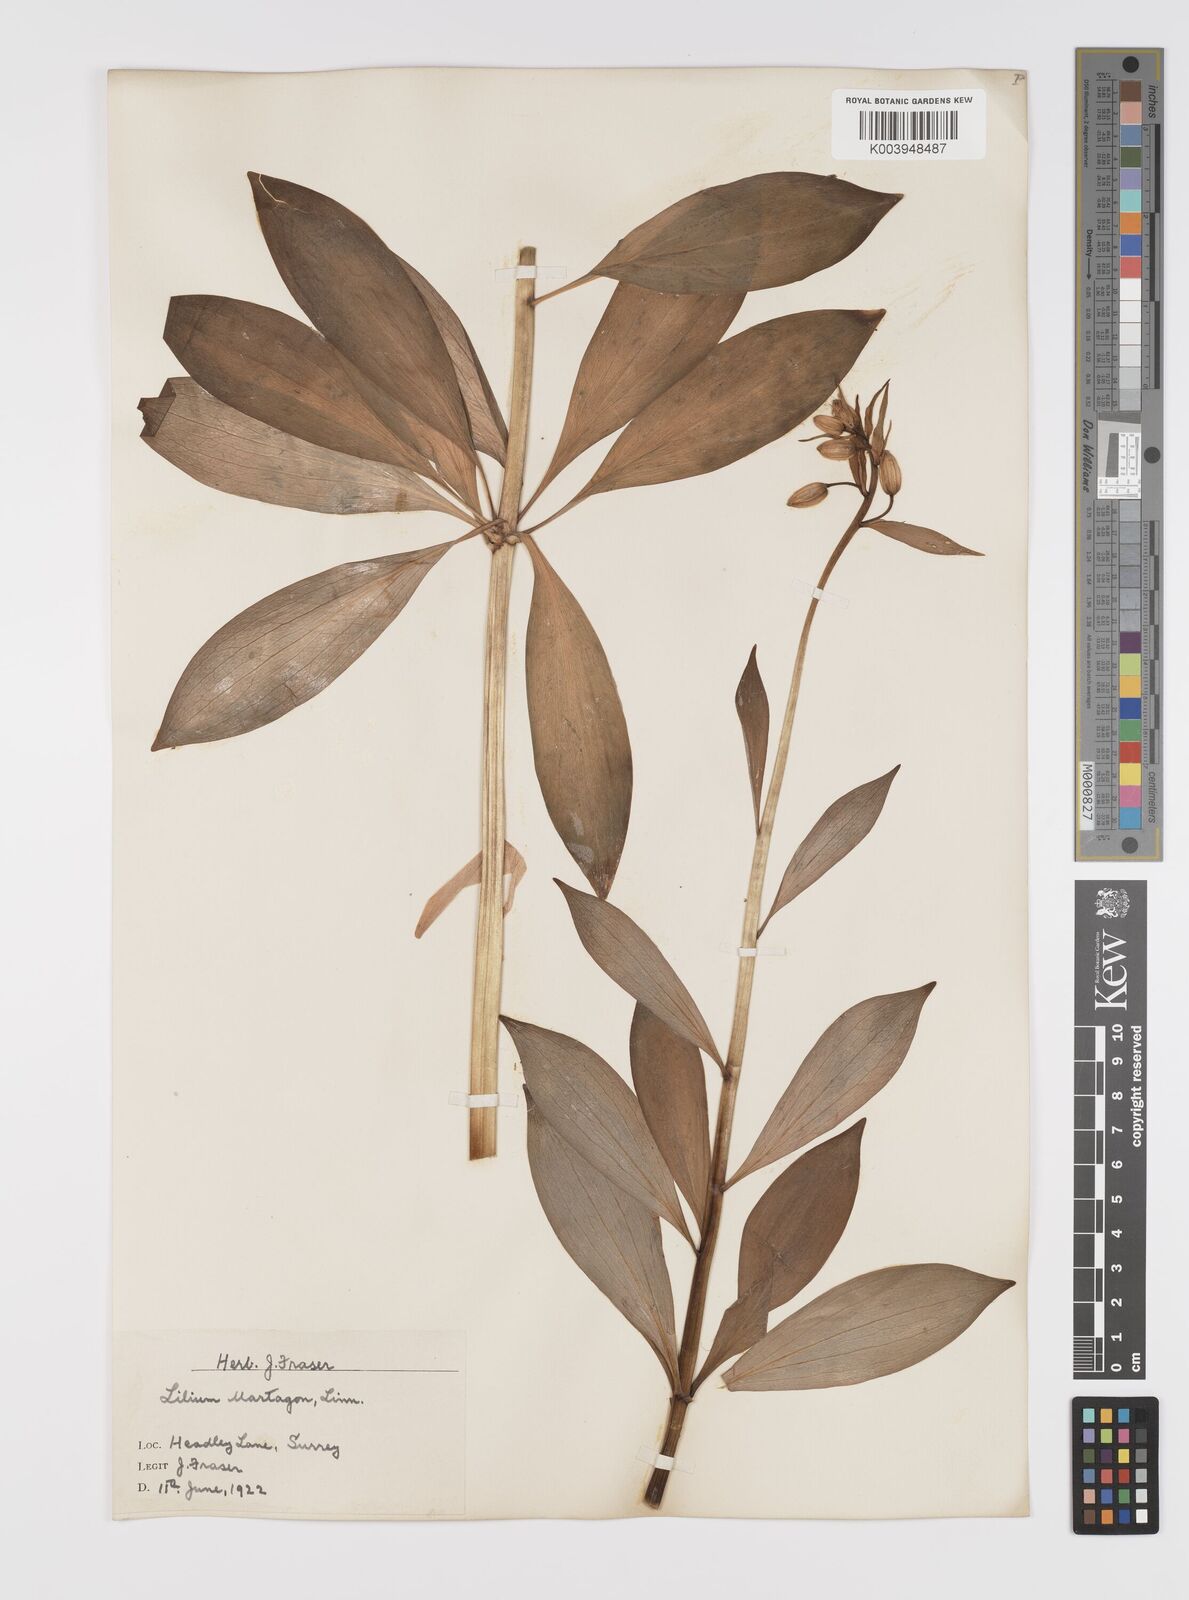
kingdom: Plantae
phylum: Tracheophyta
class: Liliopsida
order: Liliales
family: Liliaceae
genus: Lilium
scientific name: Lilium martagon
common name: Martagon lily
